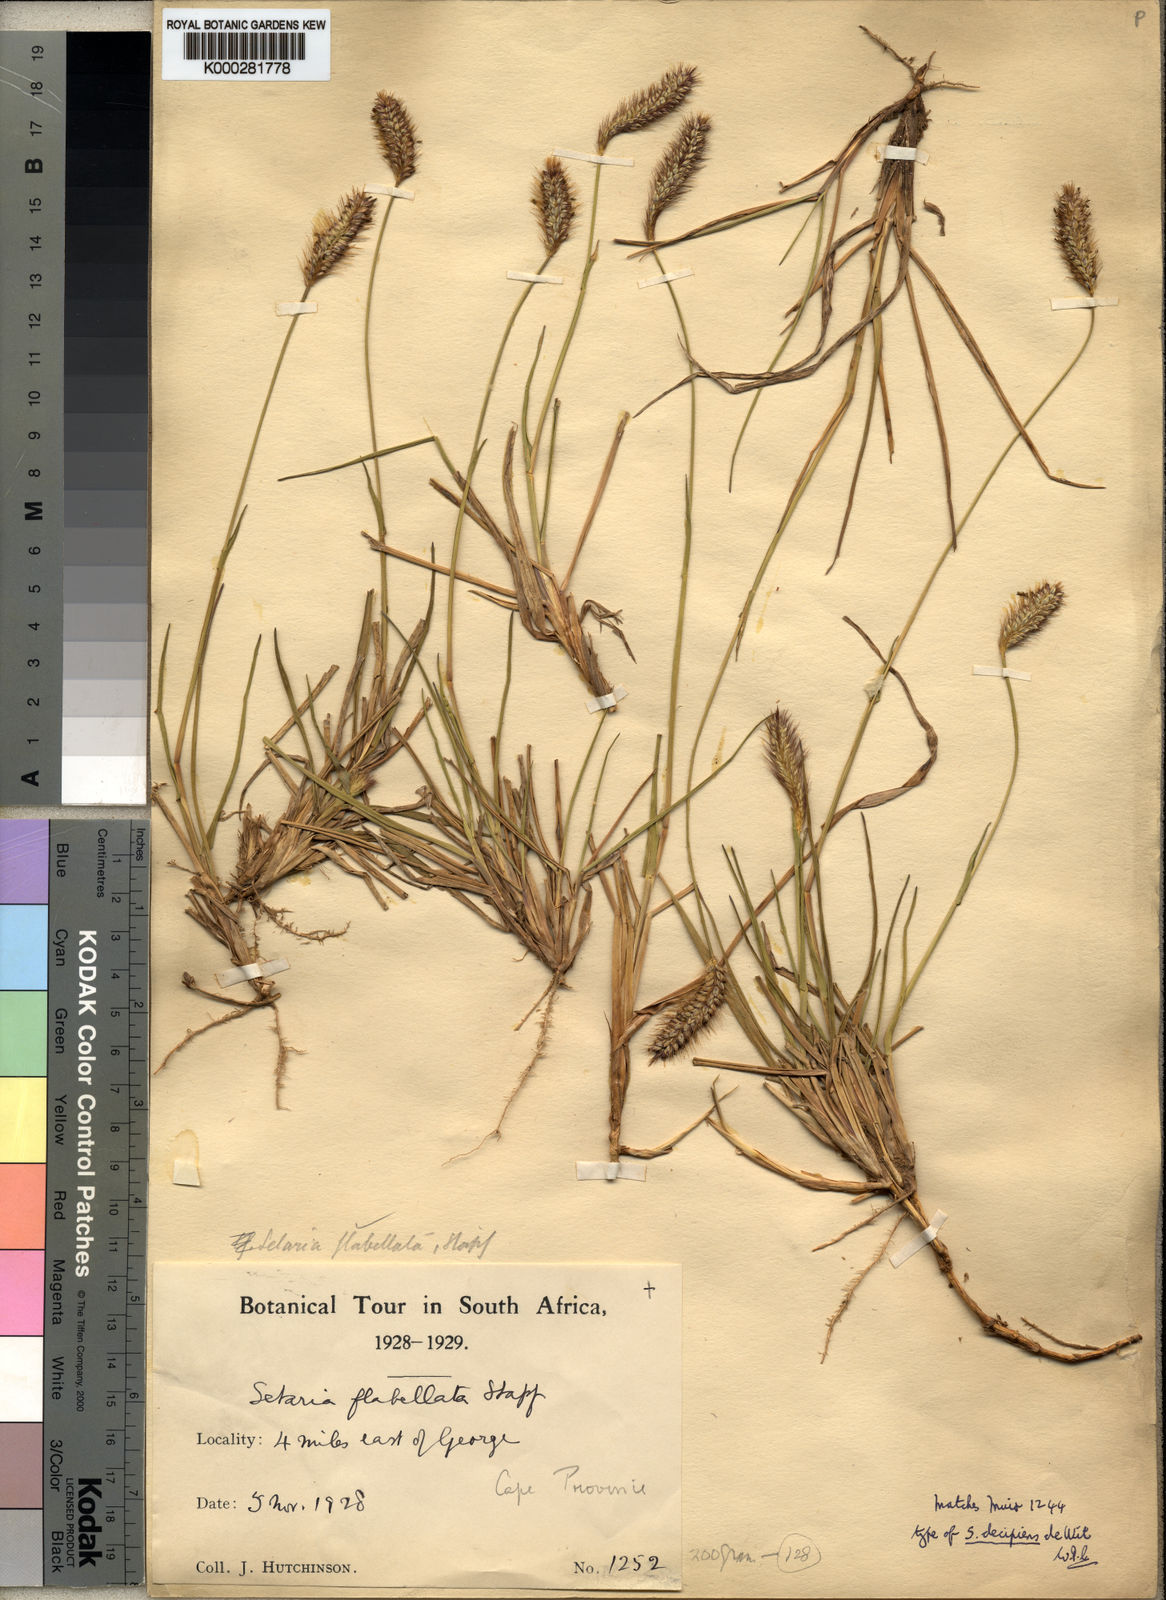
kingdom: Plantae
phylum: Tracheophyta
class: Liliopsida
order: Poales
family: Poaceae
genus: Setaria
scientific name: Setaria sphacelata
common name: African bristlegrass
